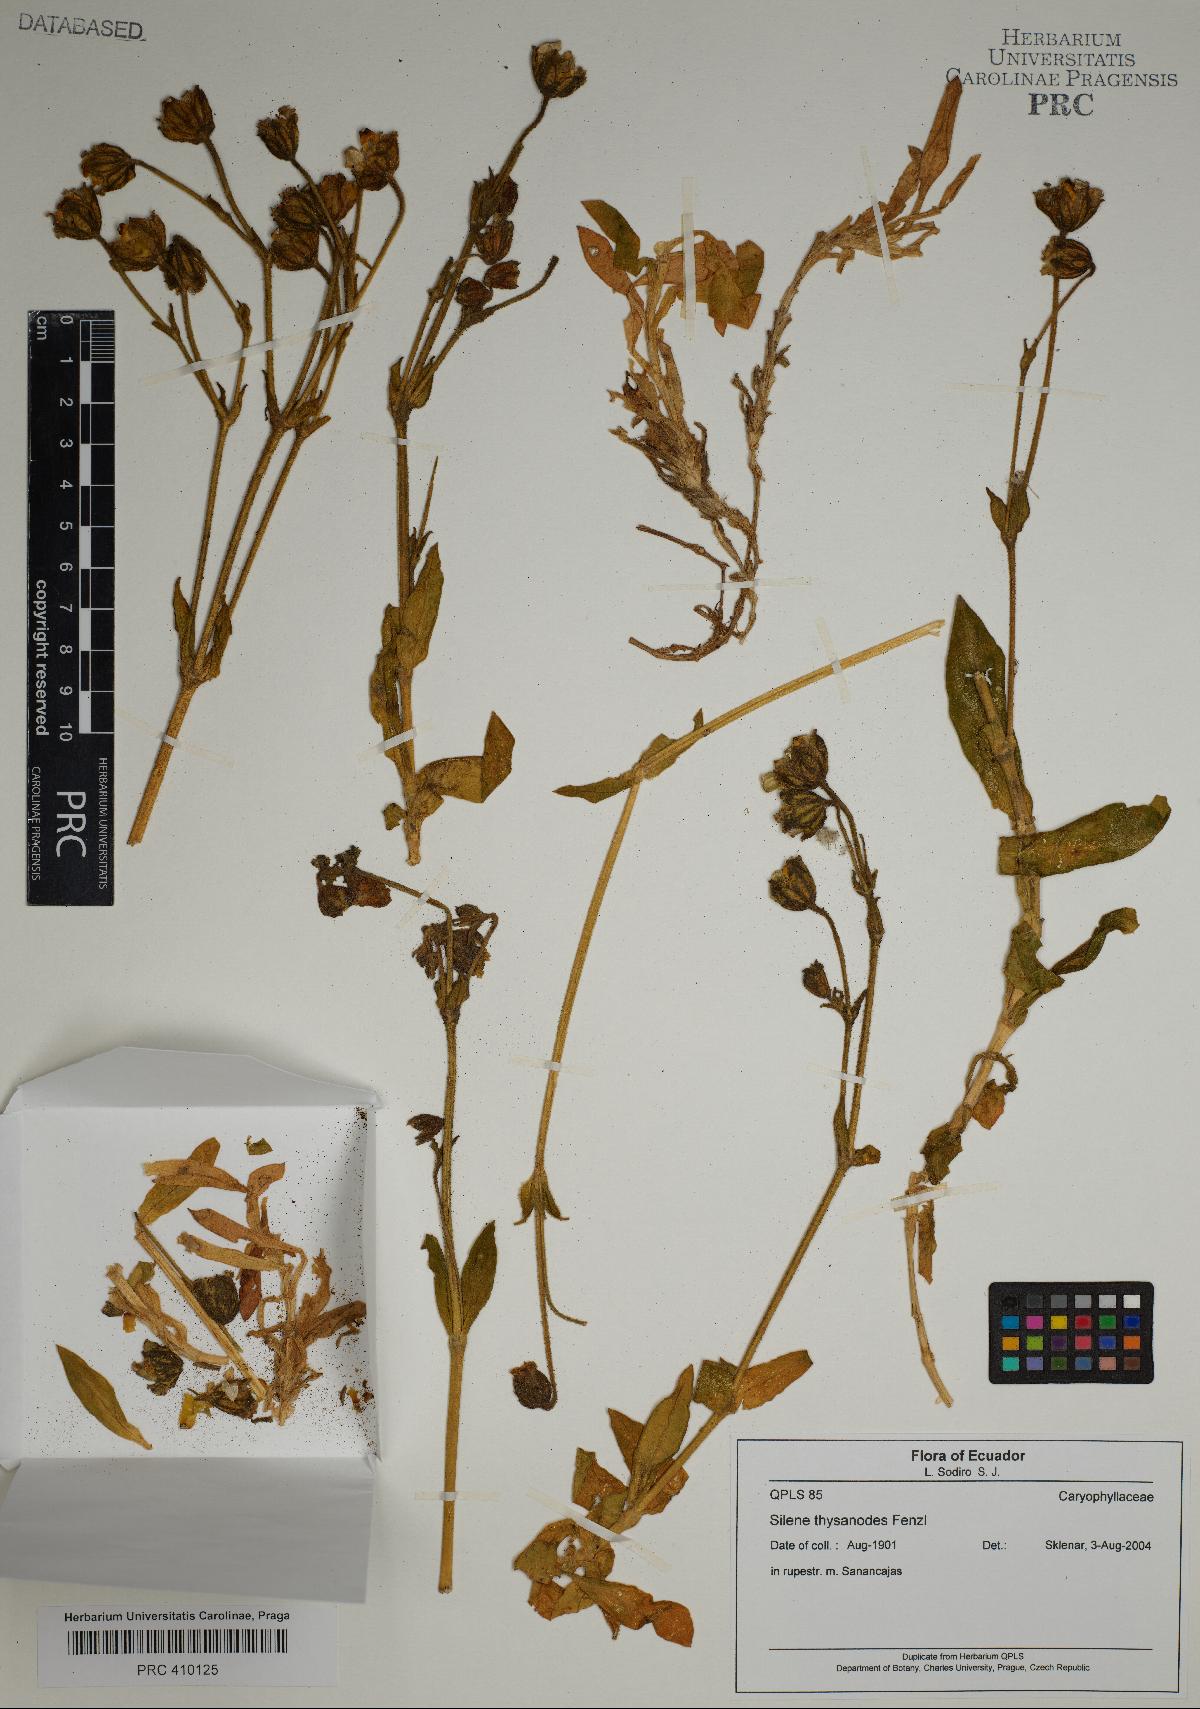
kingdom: Plantae
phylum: Tracheophyta
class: Magnoliopsida
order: Caryophyllales
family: Caryophyllaceae
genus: Silene
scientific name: Silene thysanodes
